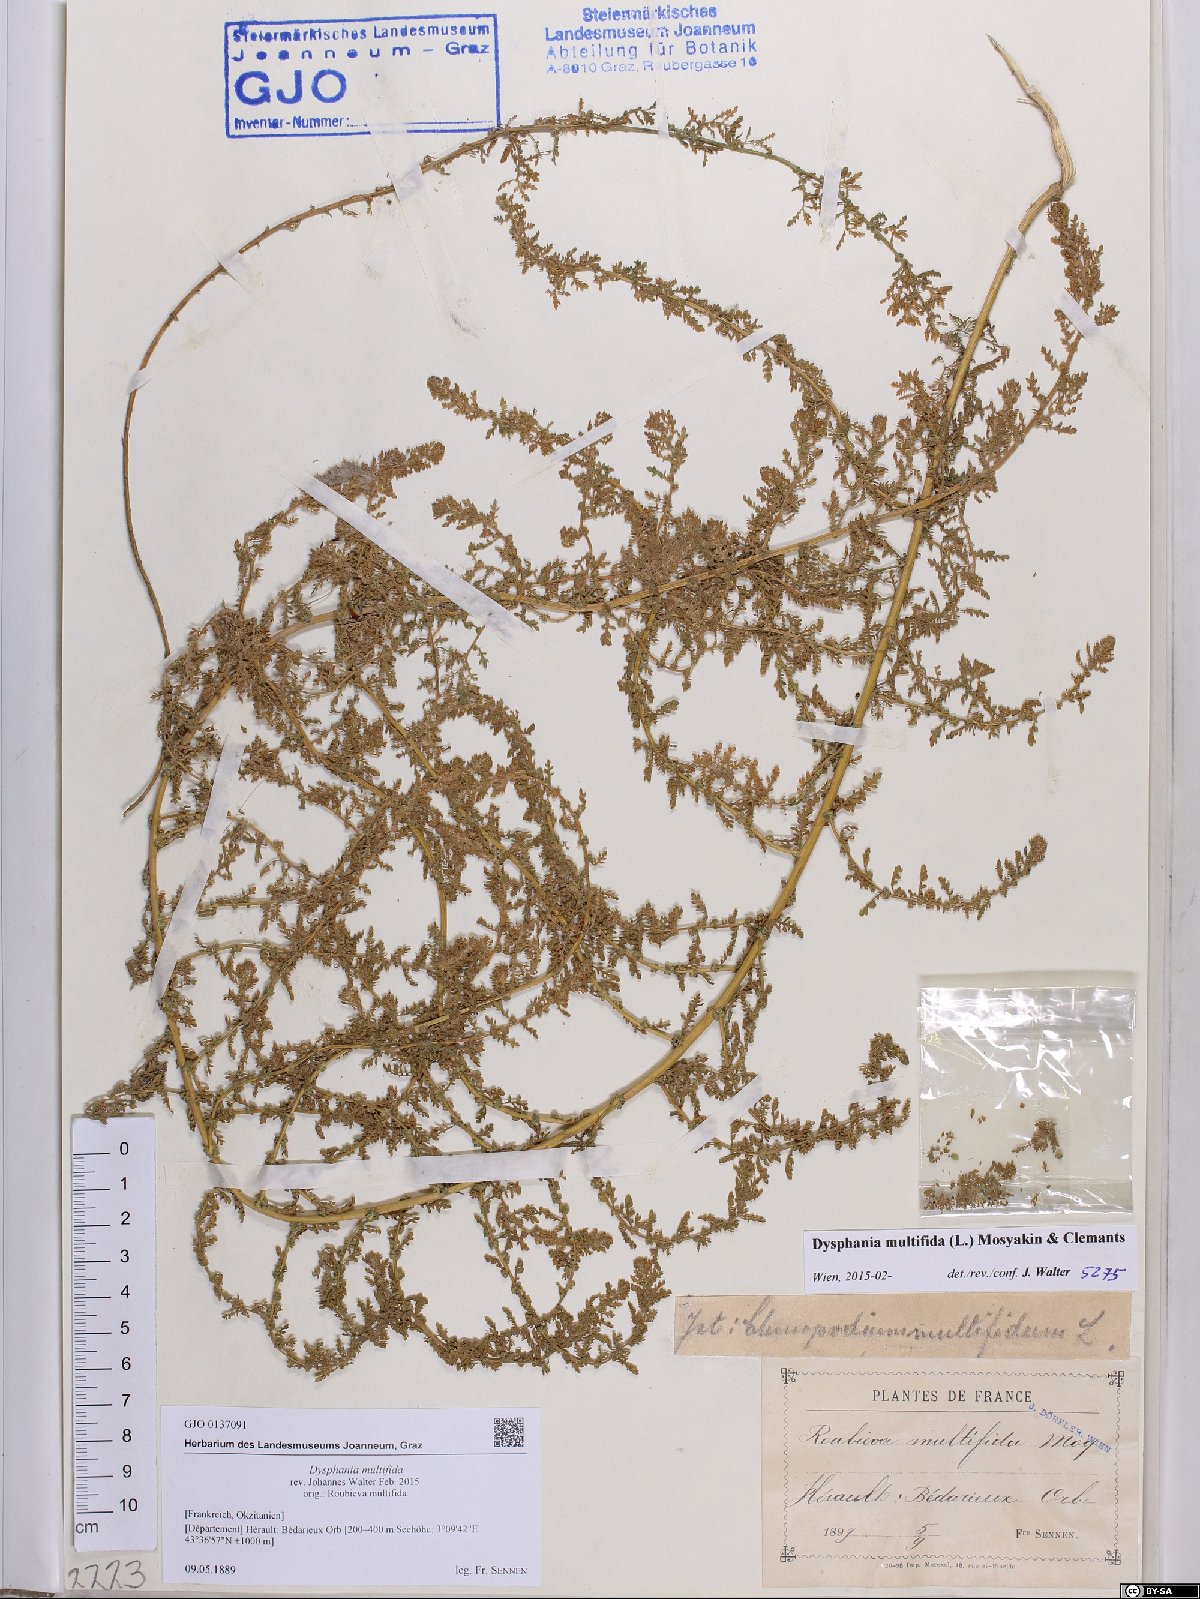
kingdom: Plantae
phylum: Tracheophyta
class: Magnoliopsida
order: Caryophyllales
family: Amaranthaceae
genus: Dysphania
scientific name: Dysphania multifida
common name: Cutleaf goosefoot
